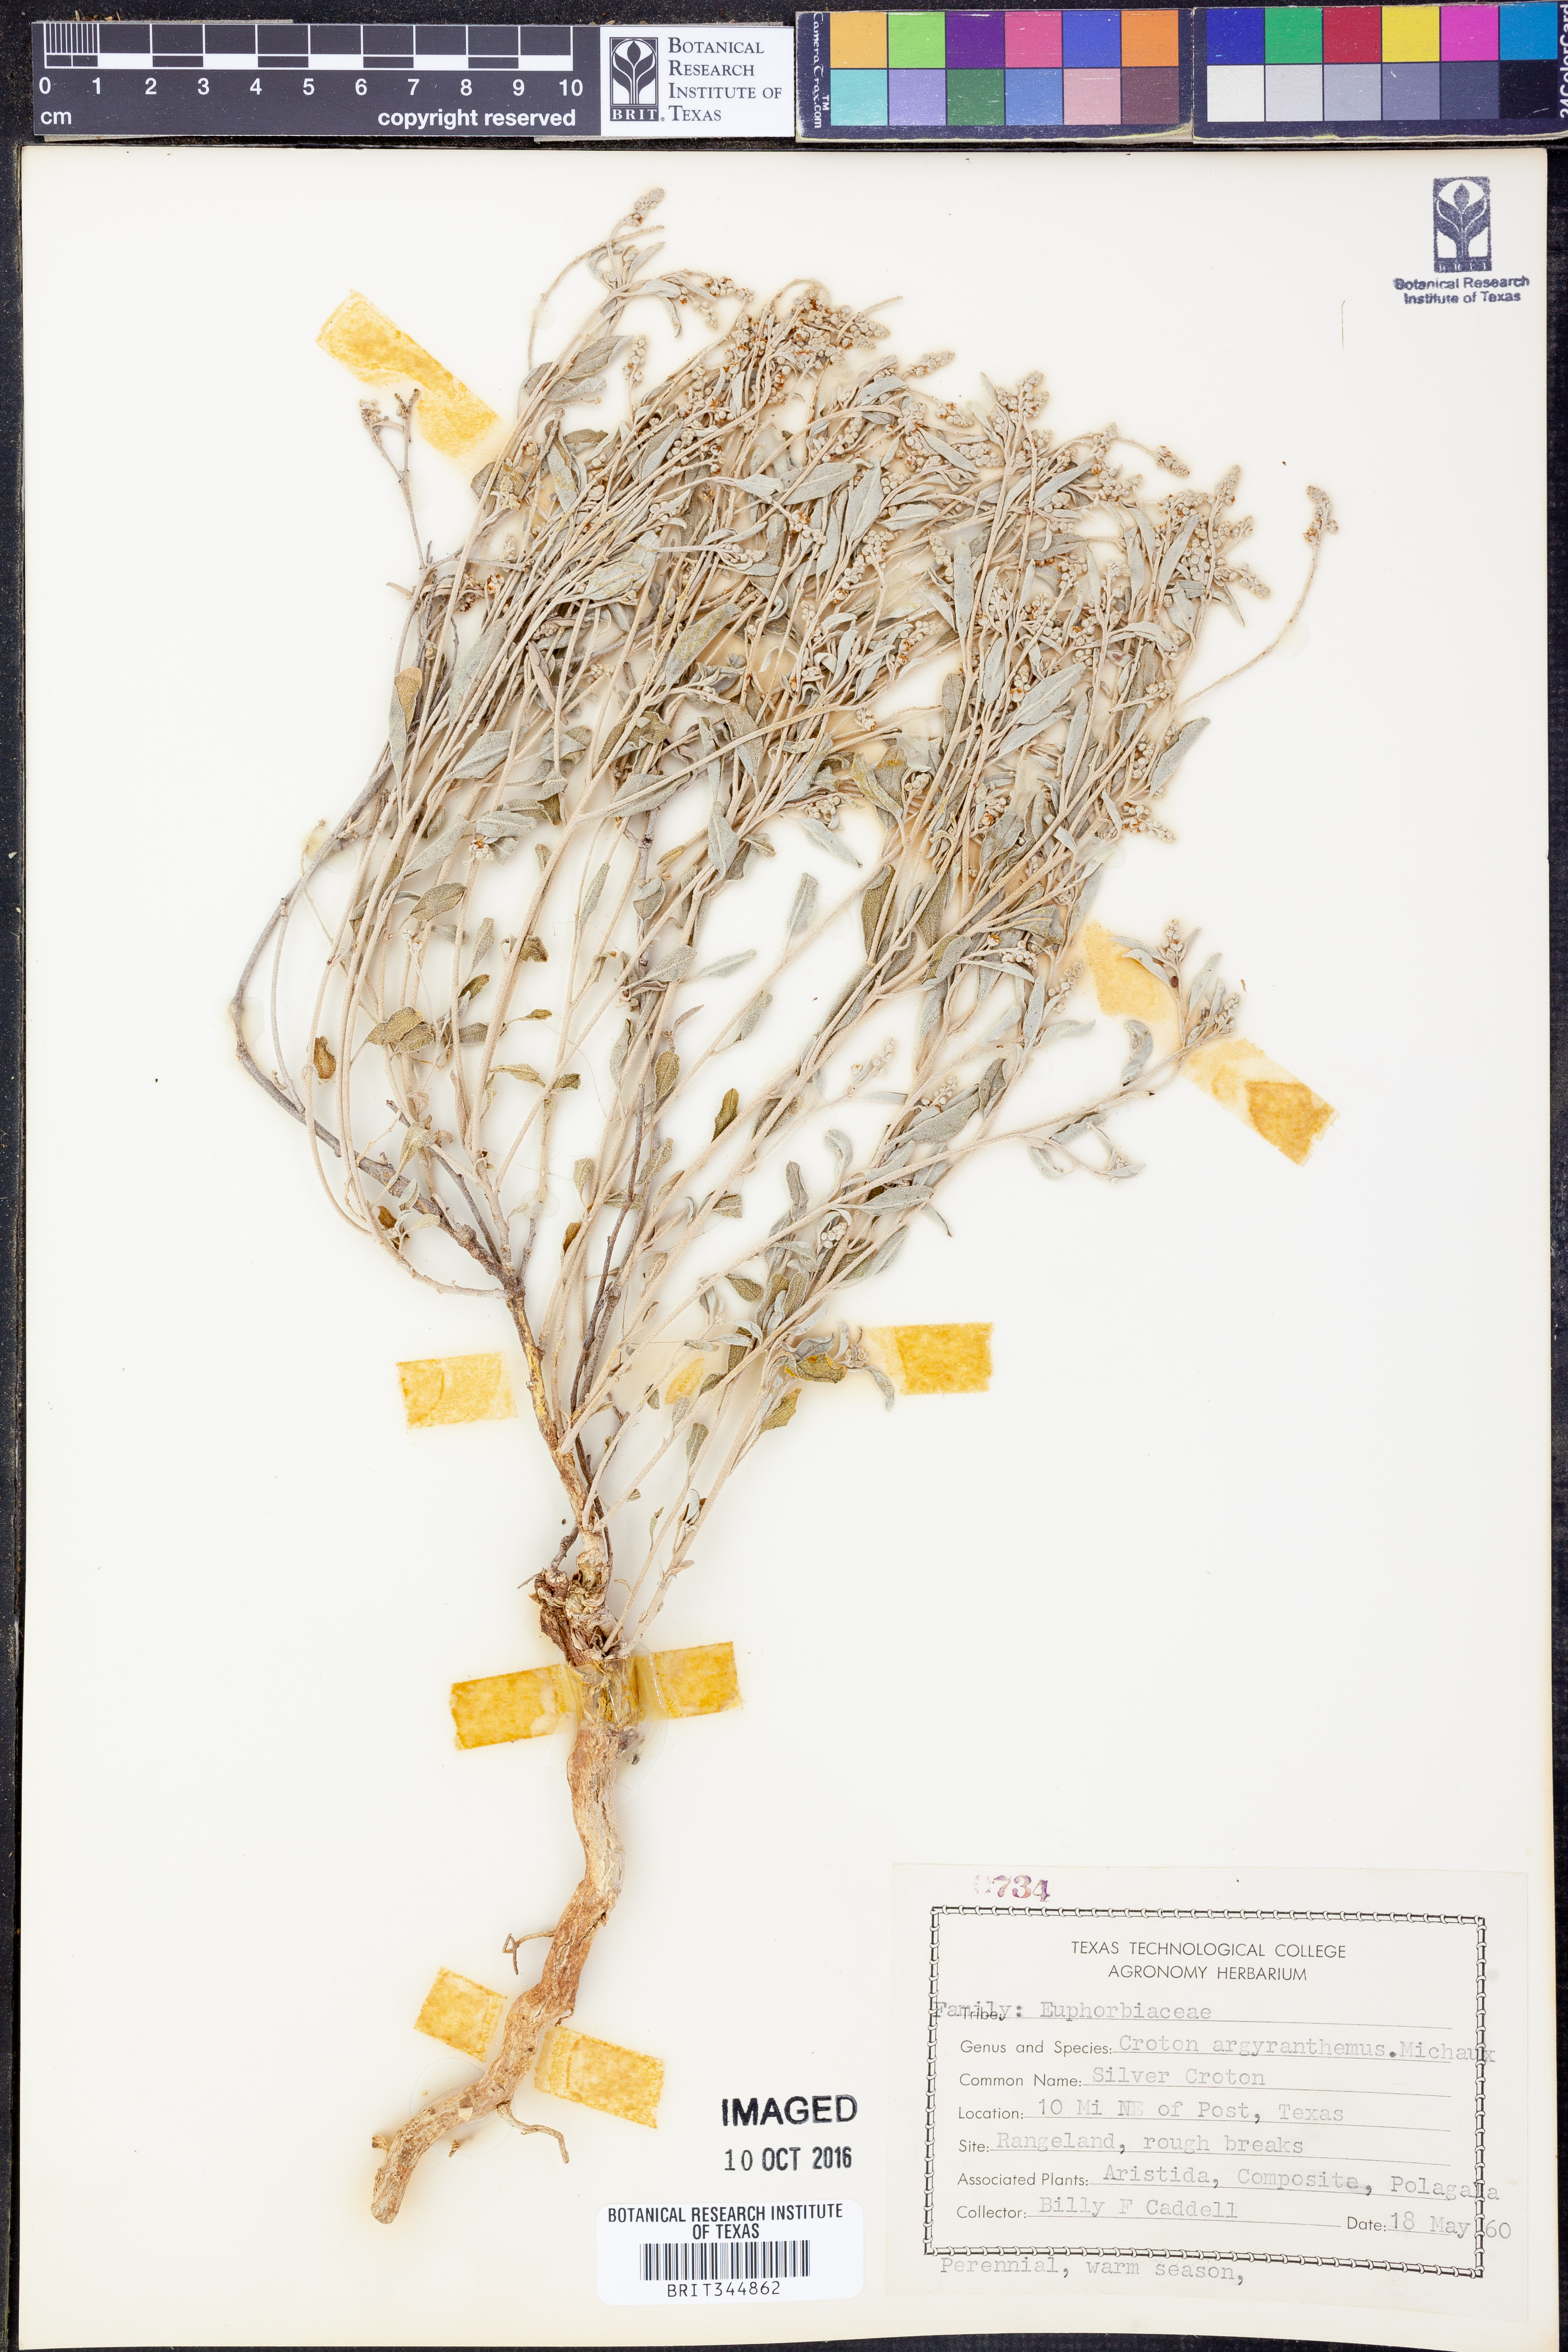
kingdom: Plantae
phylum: Tracheophyta
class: Magnoliopsida
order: Malpighiales
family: Euphorbiaceae
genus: Croton
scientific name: Croton argyranthemus
